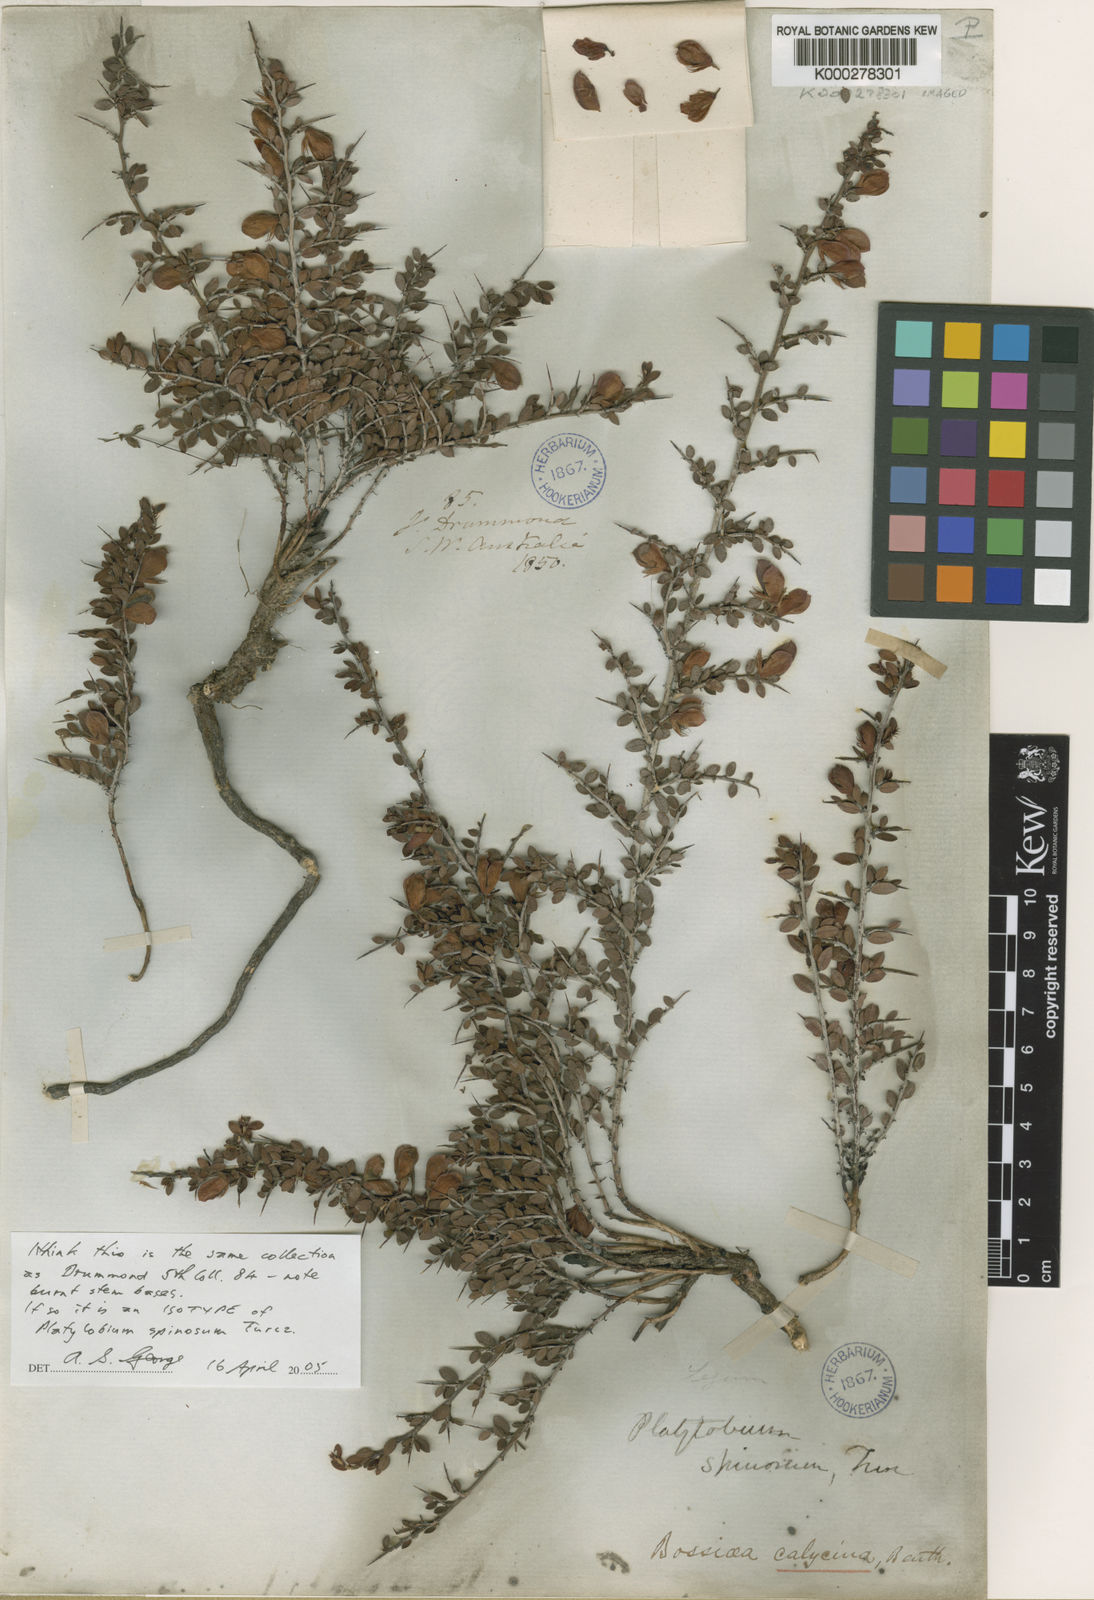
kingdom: Plantae
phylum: Tracheophyta
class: Magnoliopsida
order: Fabales
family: Fabaceae
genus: Bossiaea
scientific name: Bossiaea spinosa
